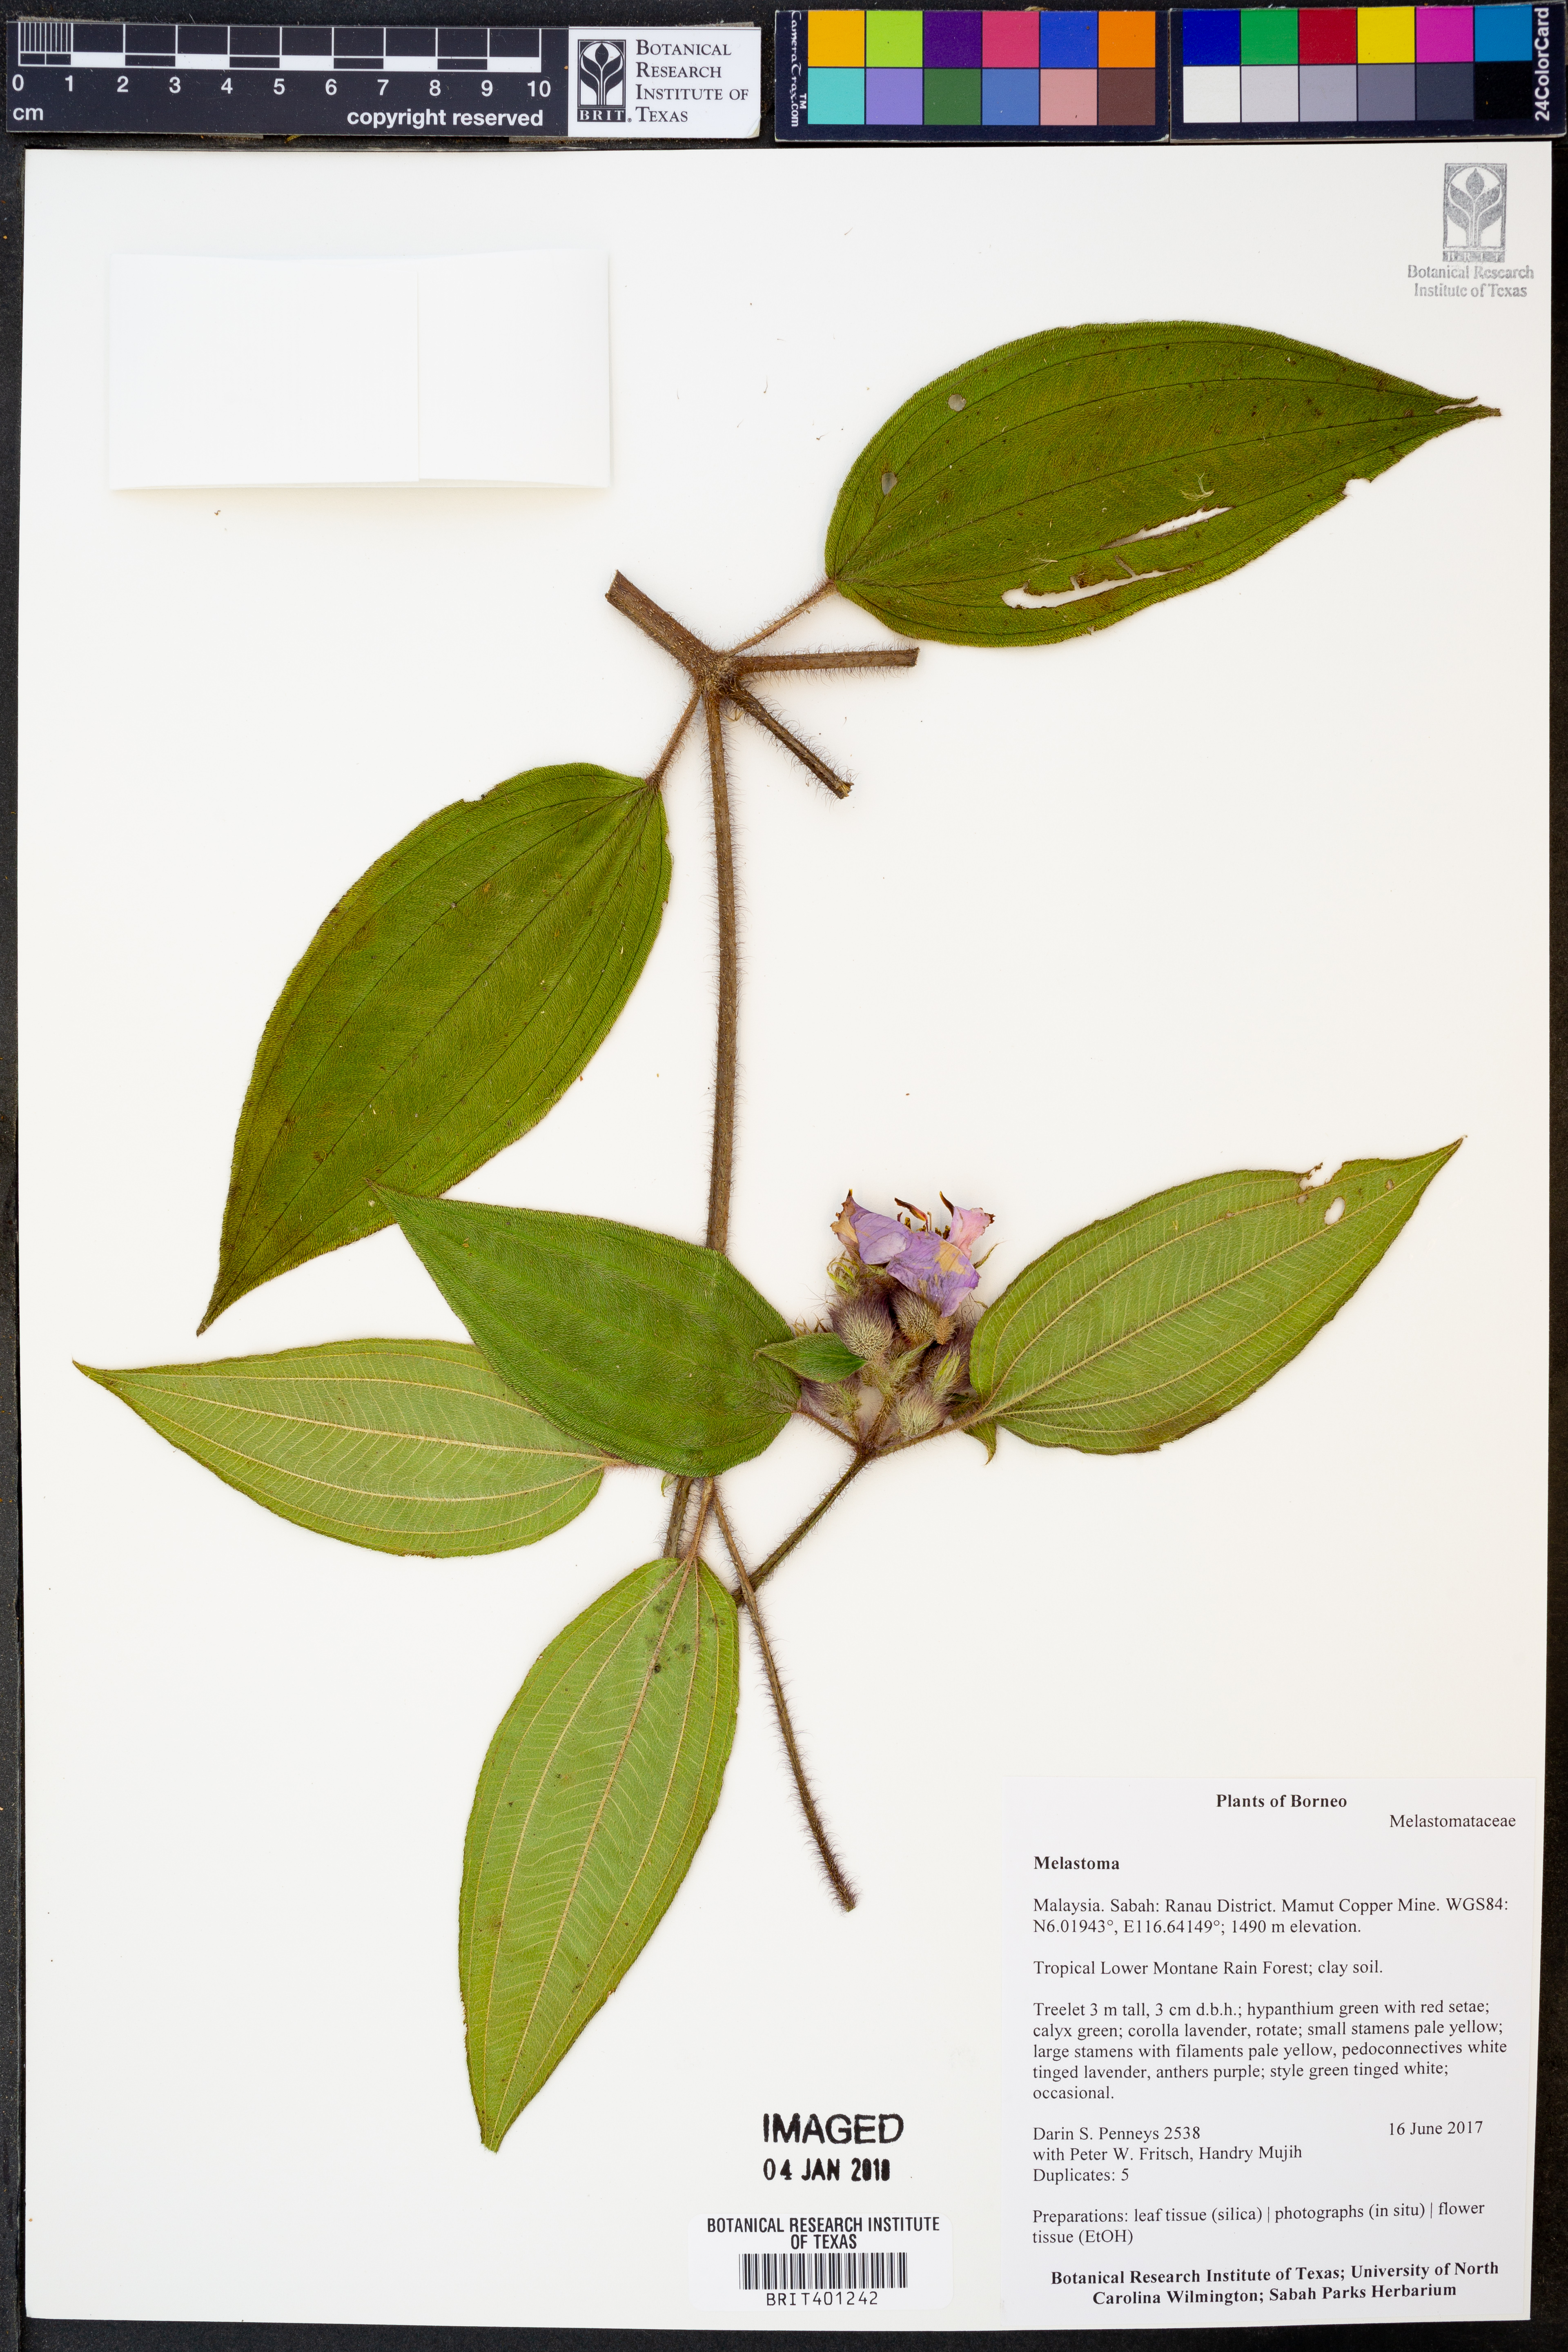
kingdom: Plantae
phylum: Tracheophyta
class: Magnoliopsida
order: Myrtales
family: Melastomataceae
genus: Melastoma
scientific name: Melastoma
